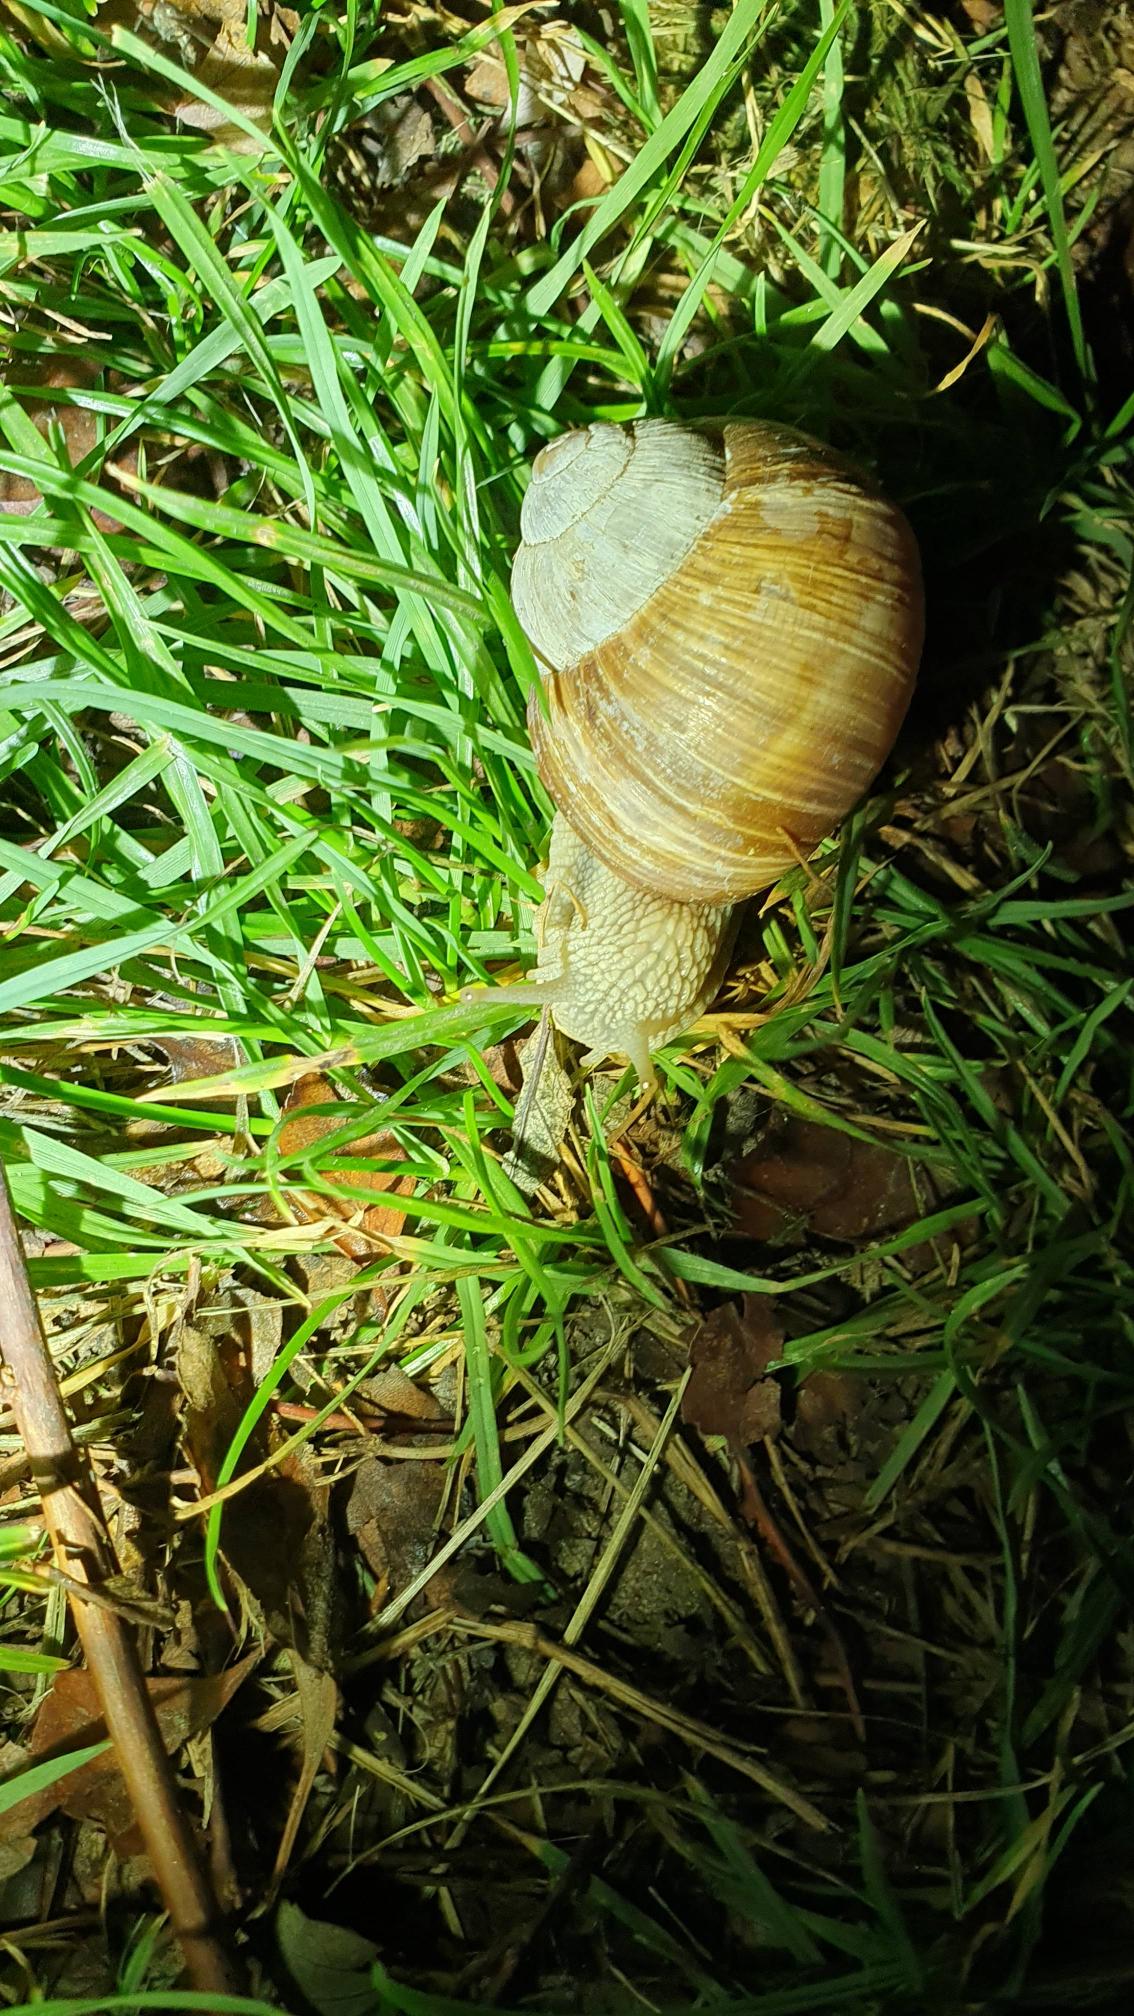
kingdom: Animalia
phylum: Mollusca
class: Gastropoda
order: Stylommatophora
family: Helicidae
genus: Helix
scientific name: Helix pomatia
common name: Vinbjergsnegl
